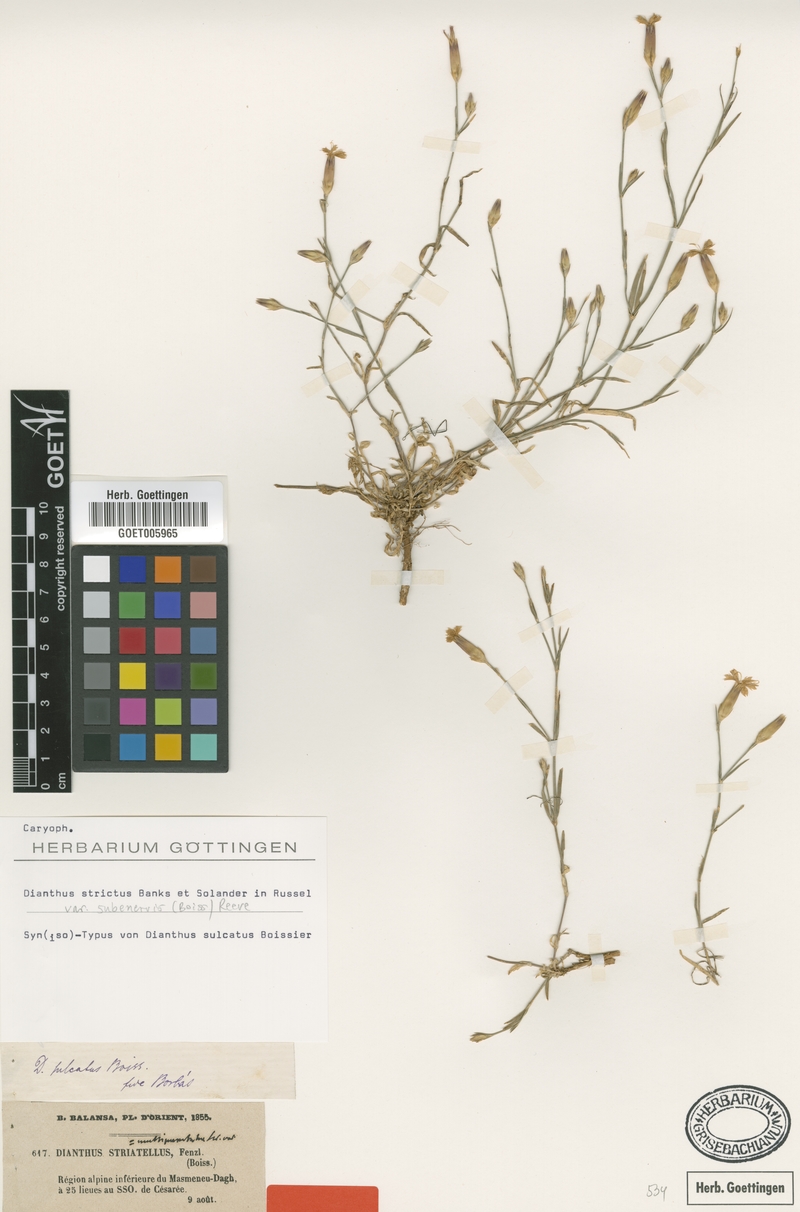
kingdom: Plantae
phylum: Tracheophyta
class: Magnoliopsida
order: Caryophyllales
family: Caryophyllaceae
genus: Dianthus
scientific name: Dianthus strictus
